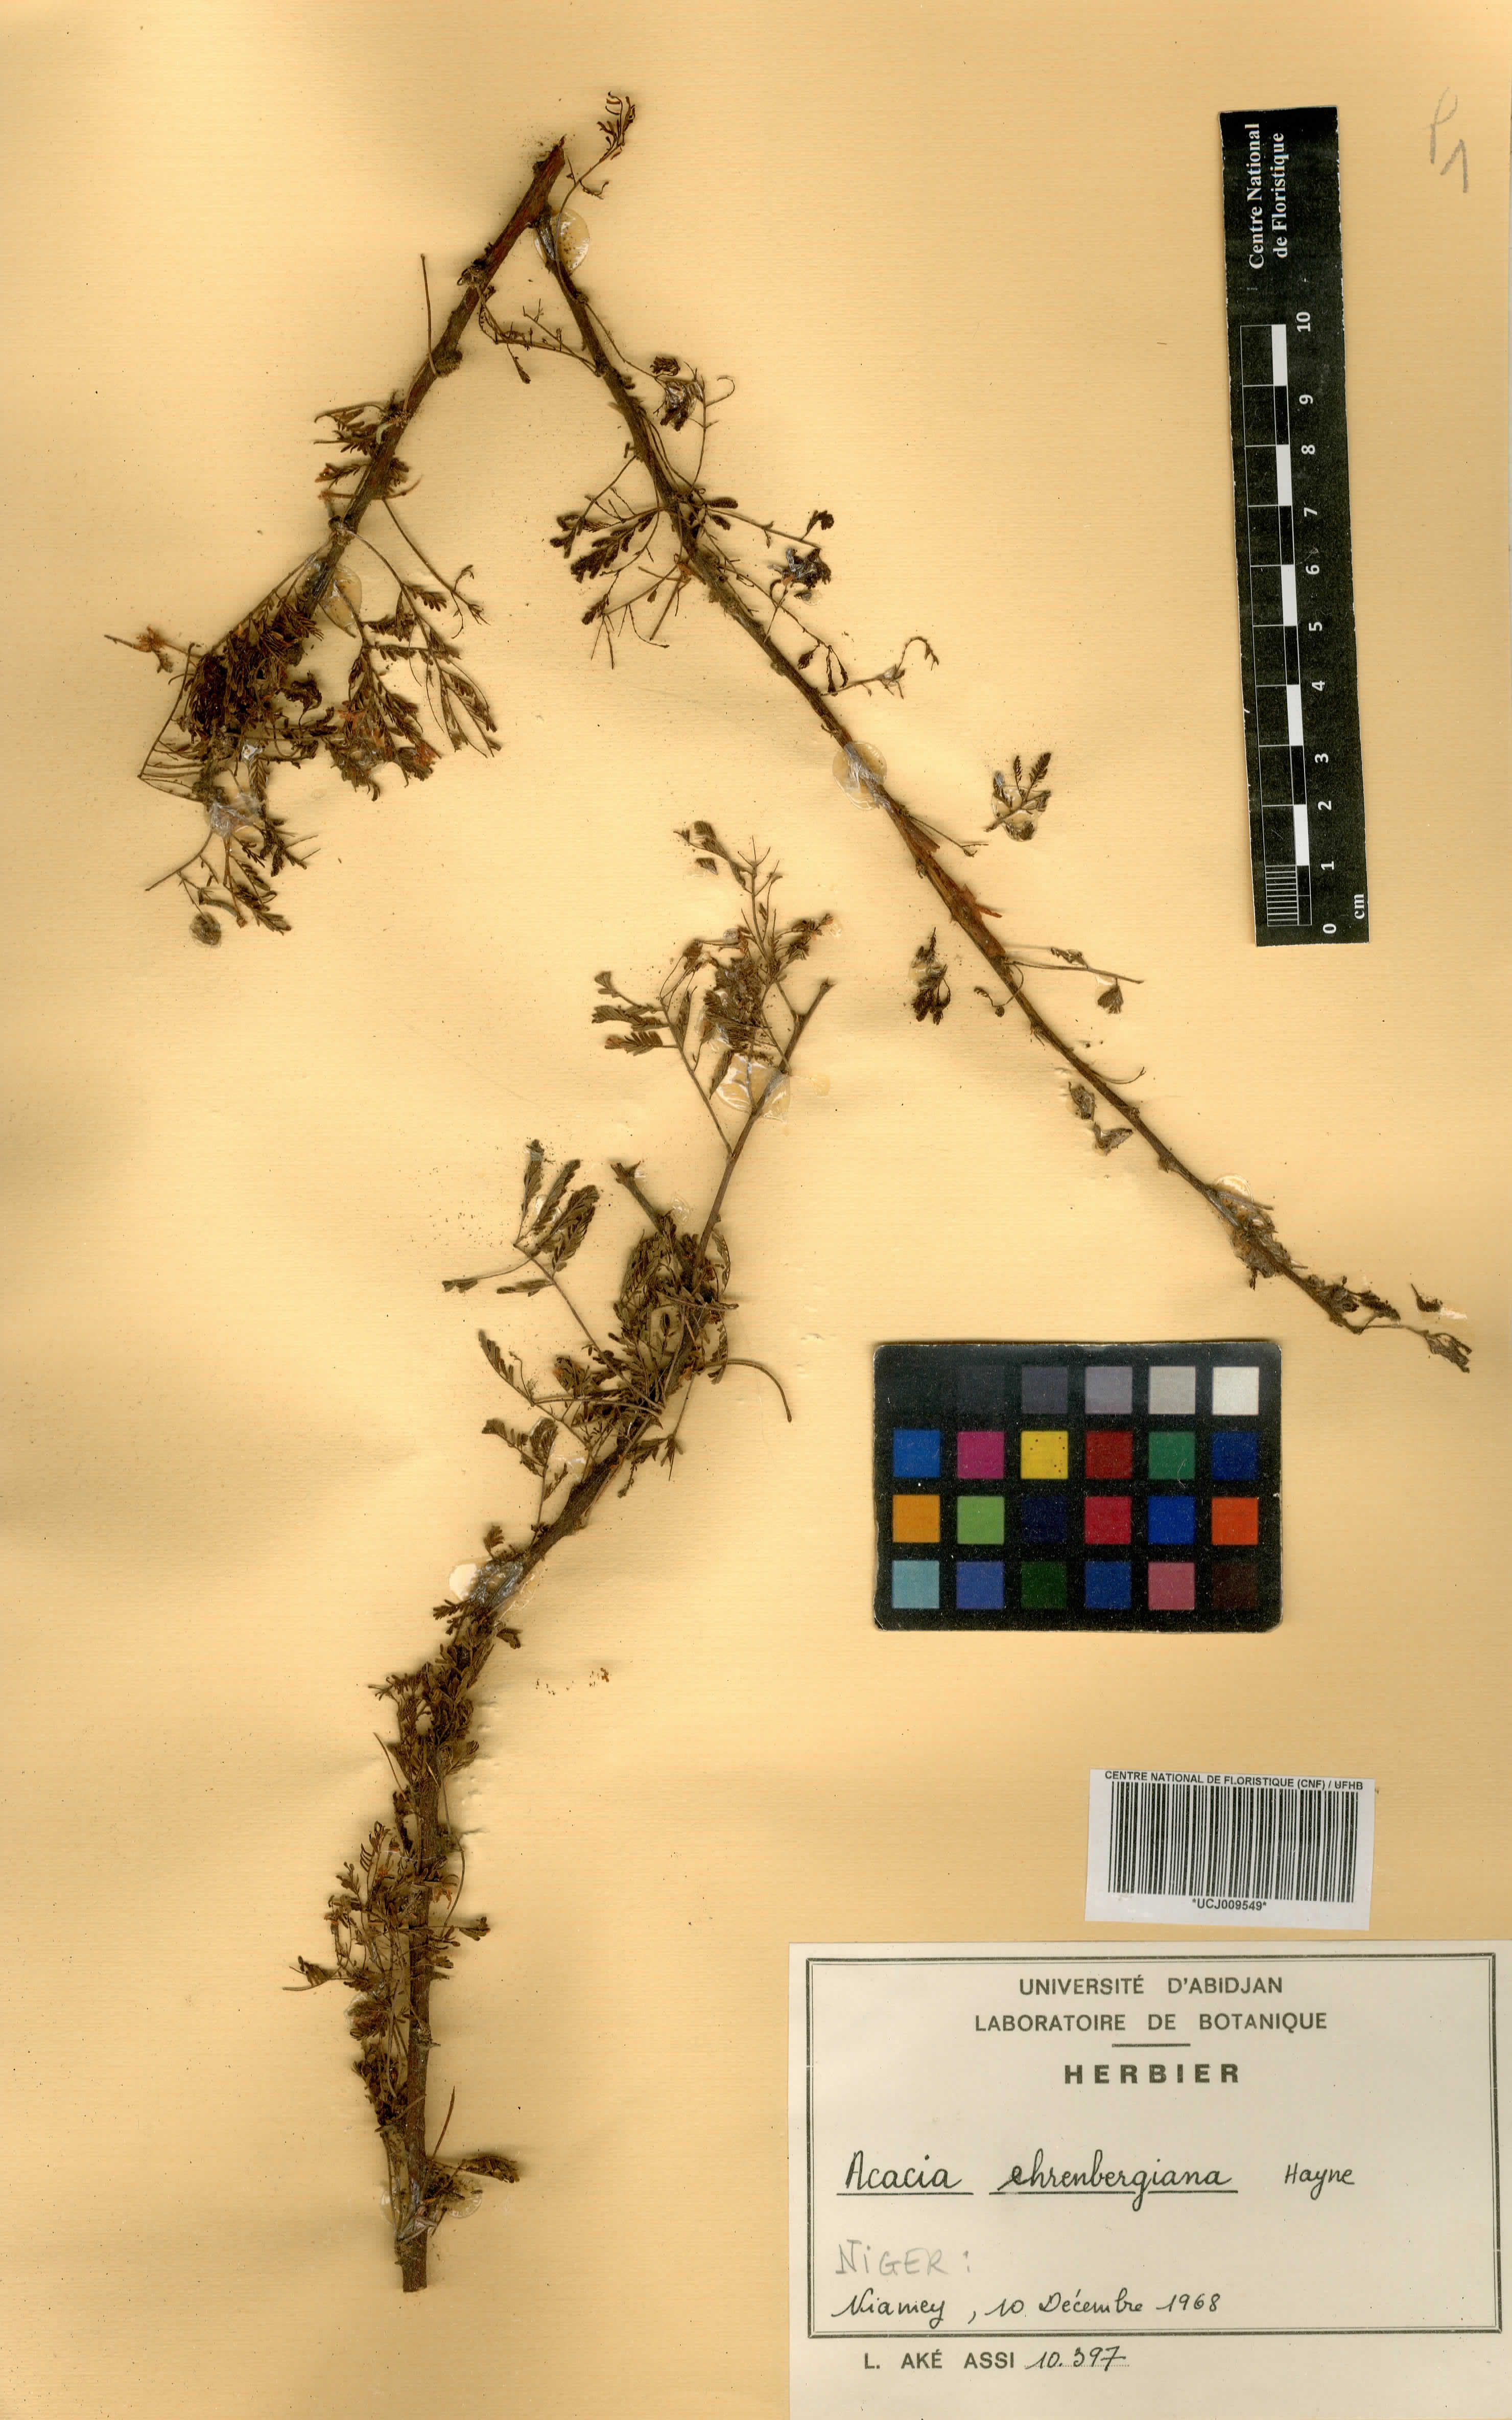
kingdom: Plantae
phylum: Tracheophyta
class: Magnoliopsida
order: Fabales
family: Fabaceae
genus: Vachellia
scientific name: Vachellia flava
